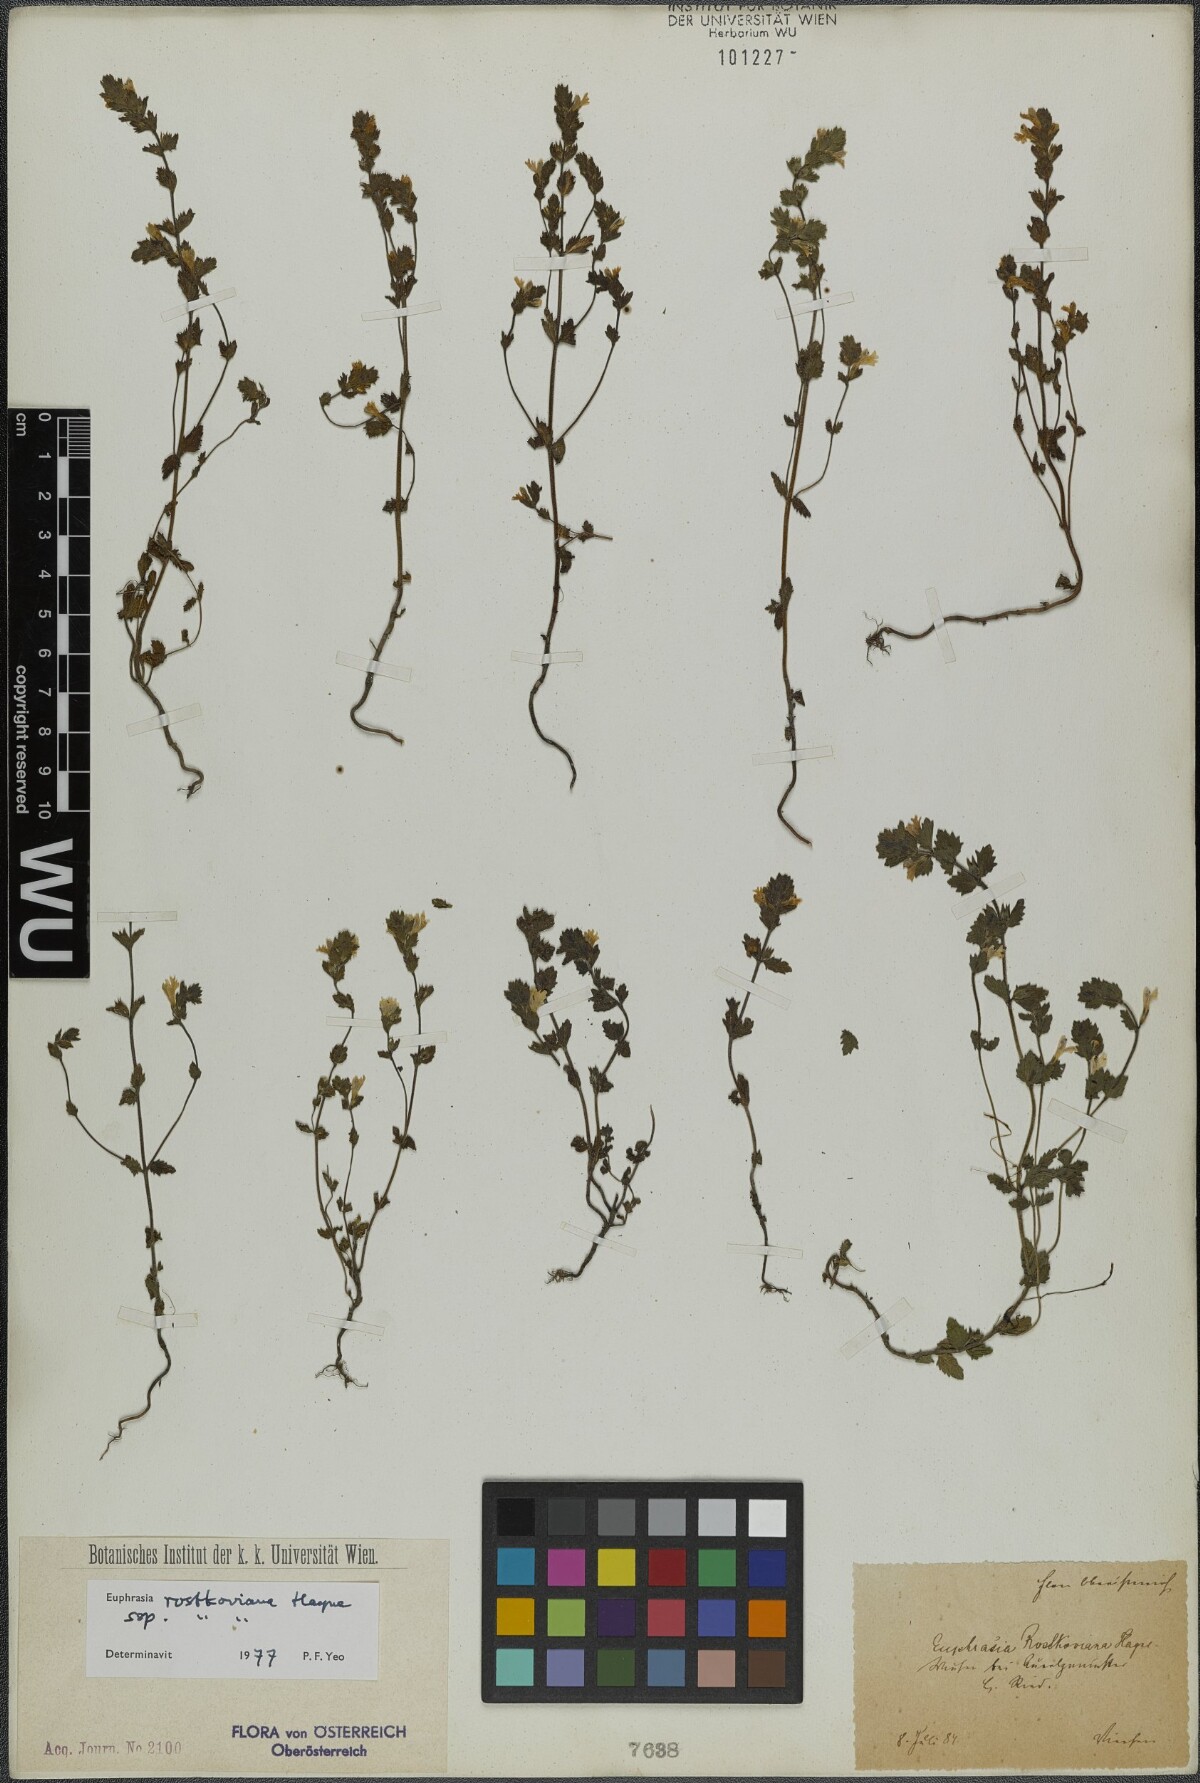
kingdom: Plantae
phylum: Tracheophyta
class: Magnoliopsida
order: Lamiales
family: Orobanchaceae
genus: Euphrasia
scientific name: Euphrasia officinalis
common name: Eyebright
